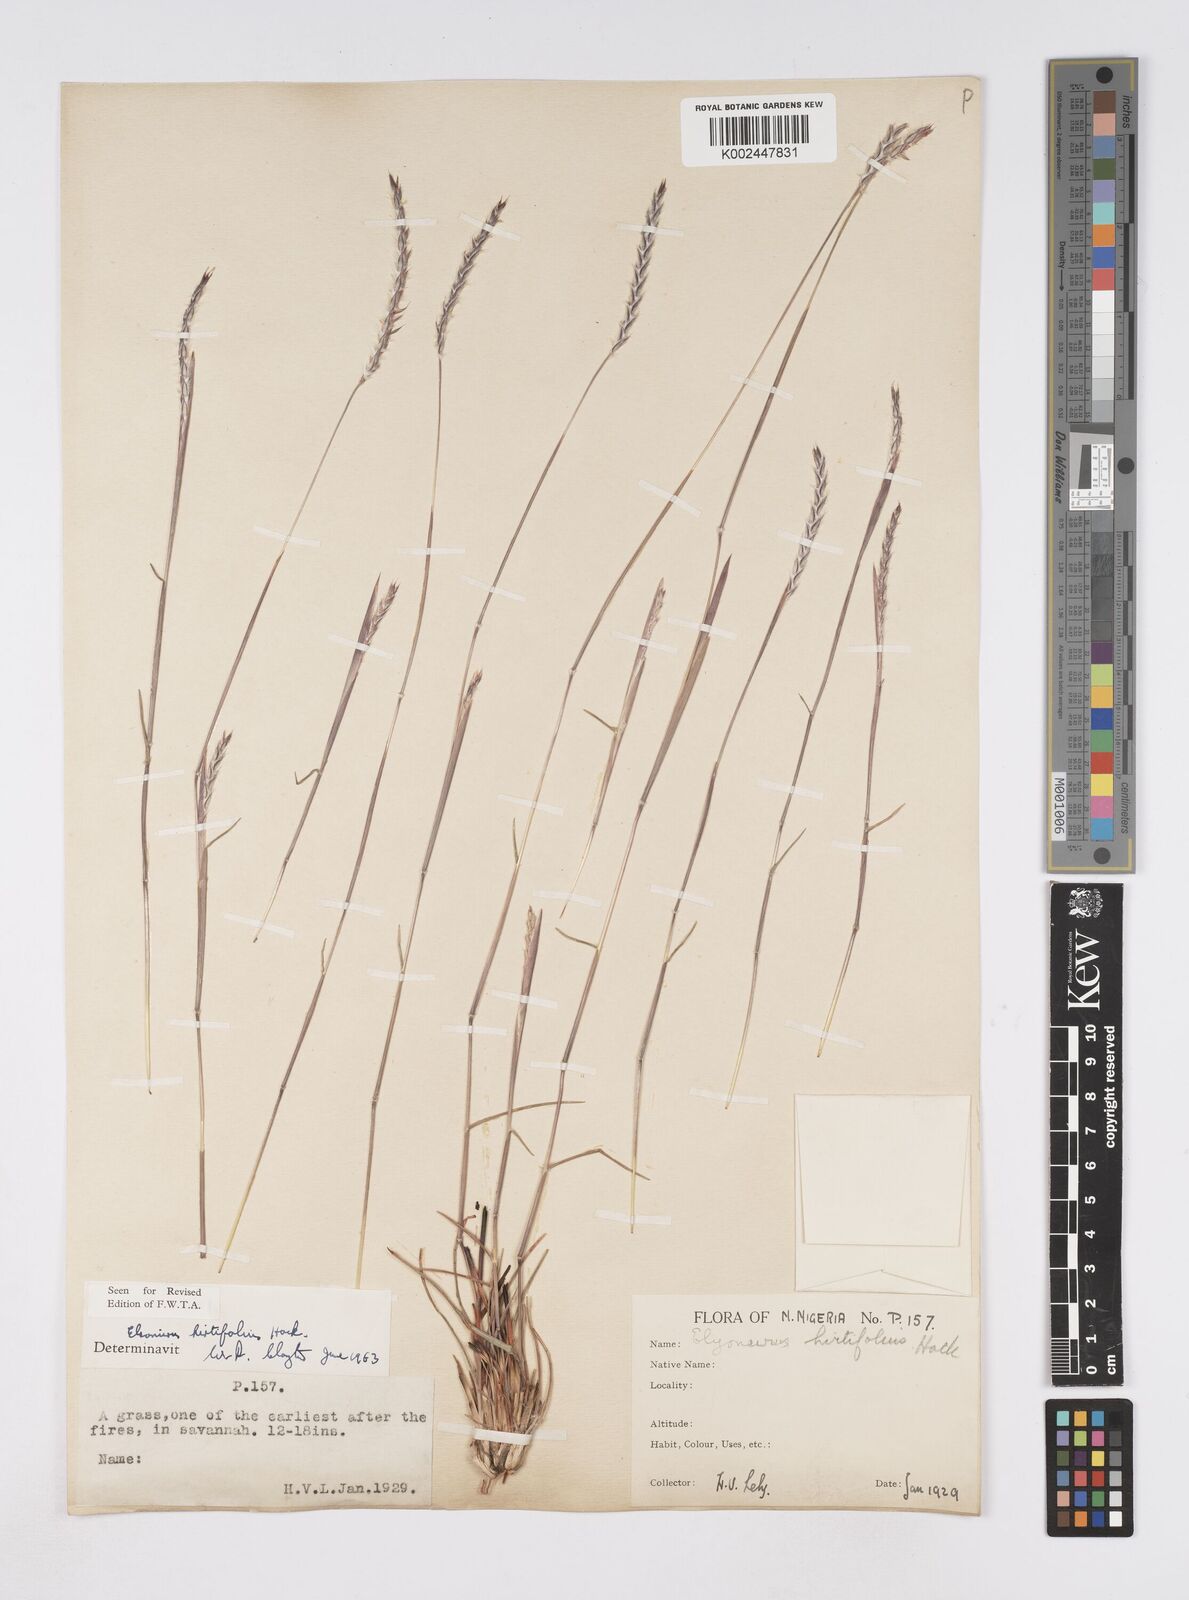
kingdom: Plantae
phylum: Tracheophyta
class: Liliopsida
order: Poales
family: Poaceae
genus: Elionurus
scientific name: Elionurus hirtifolius
